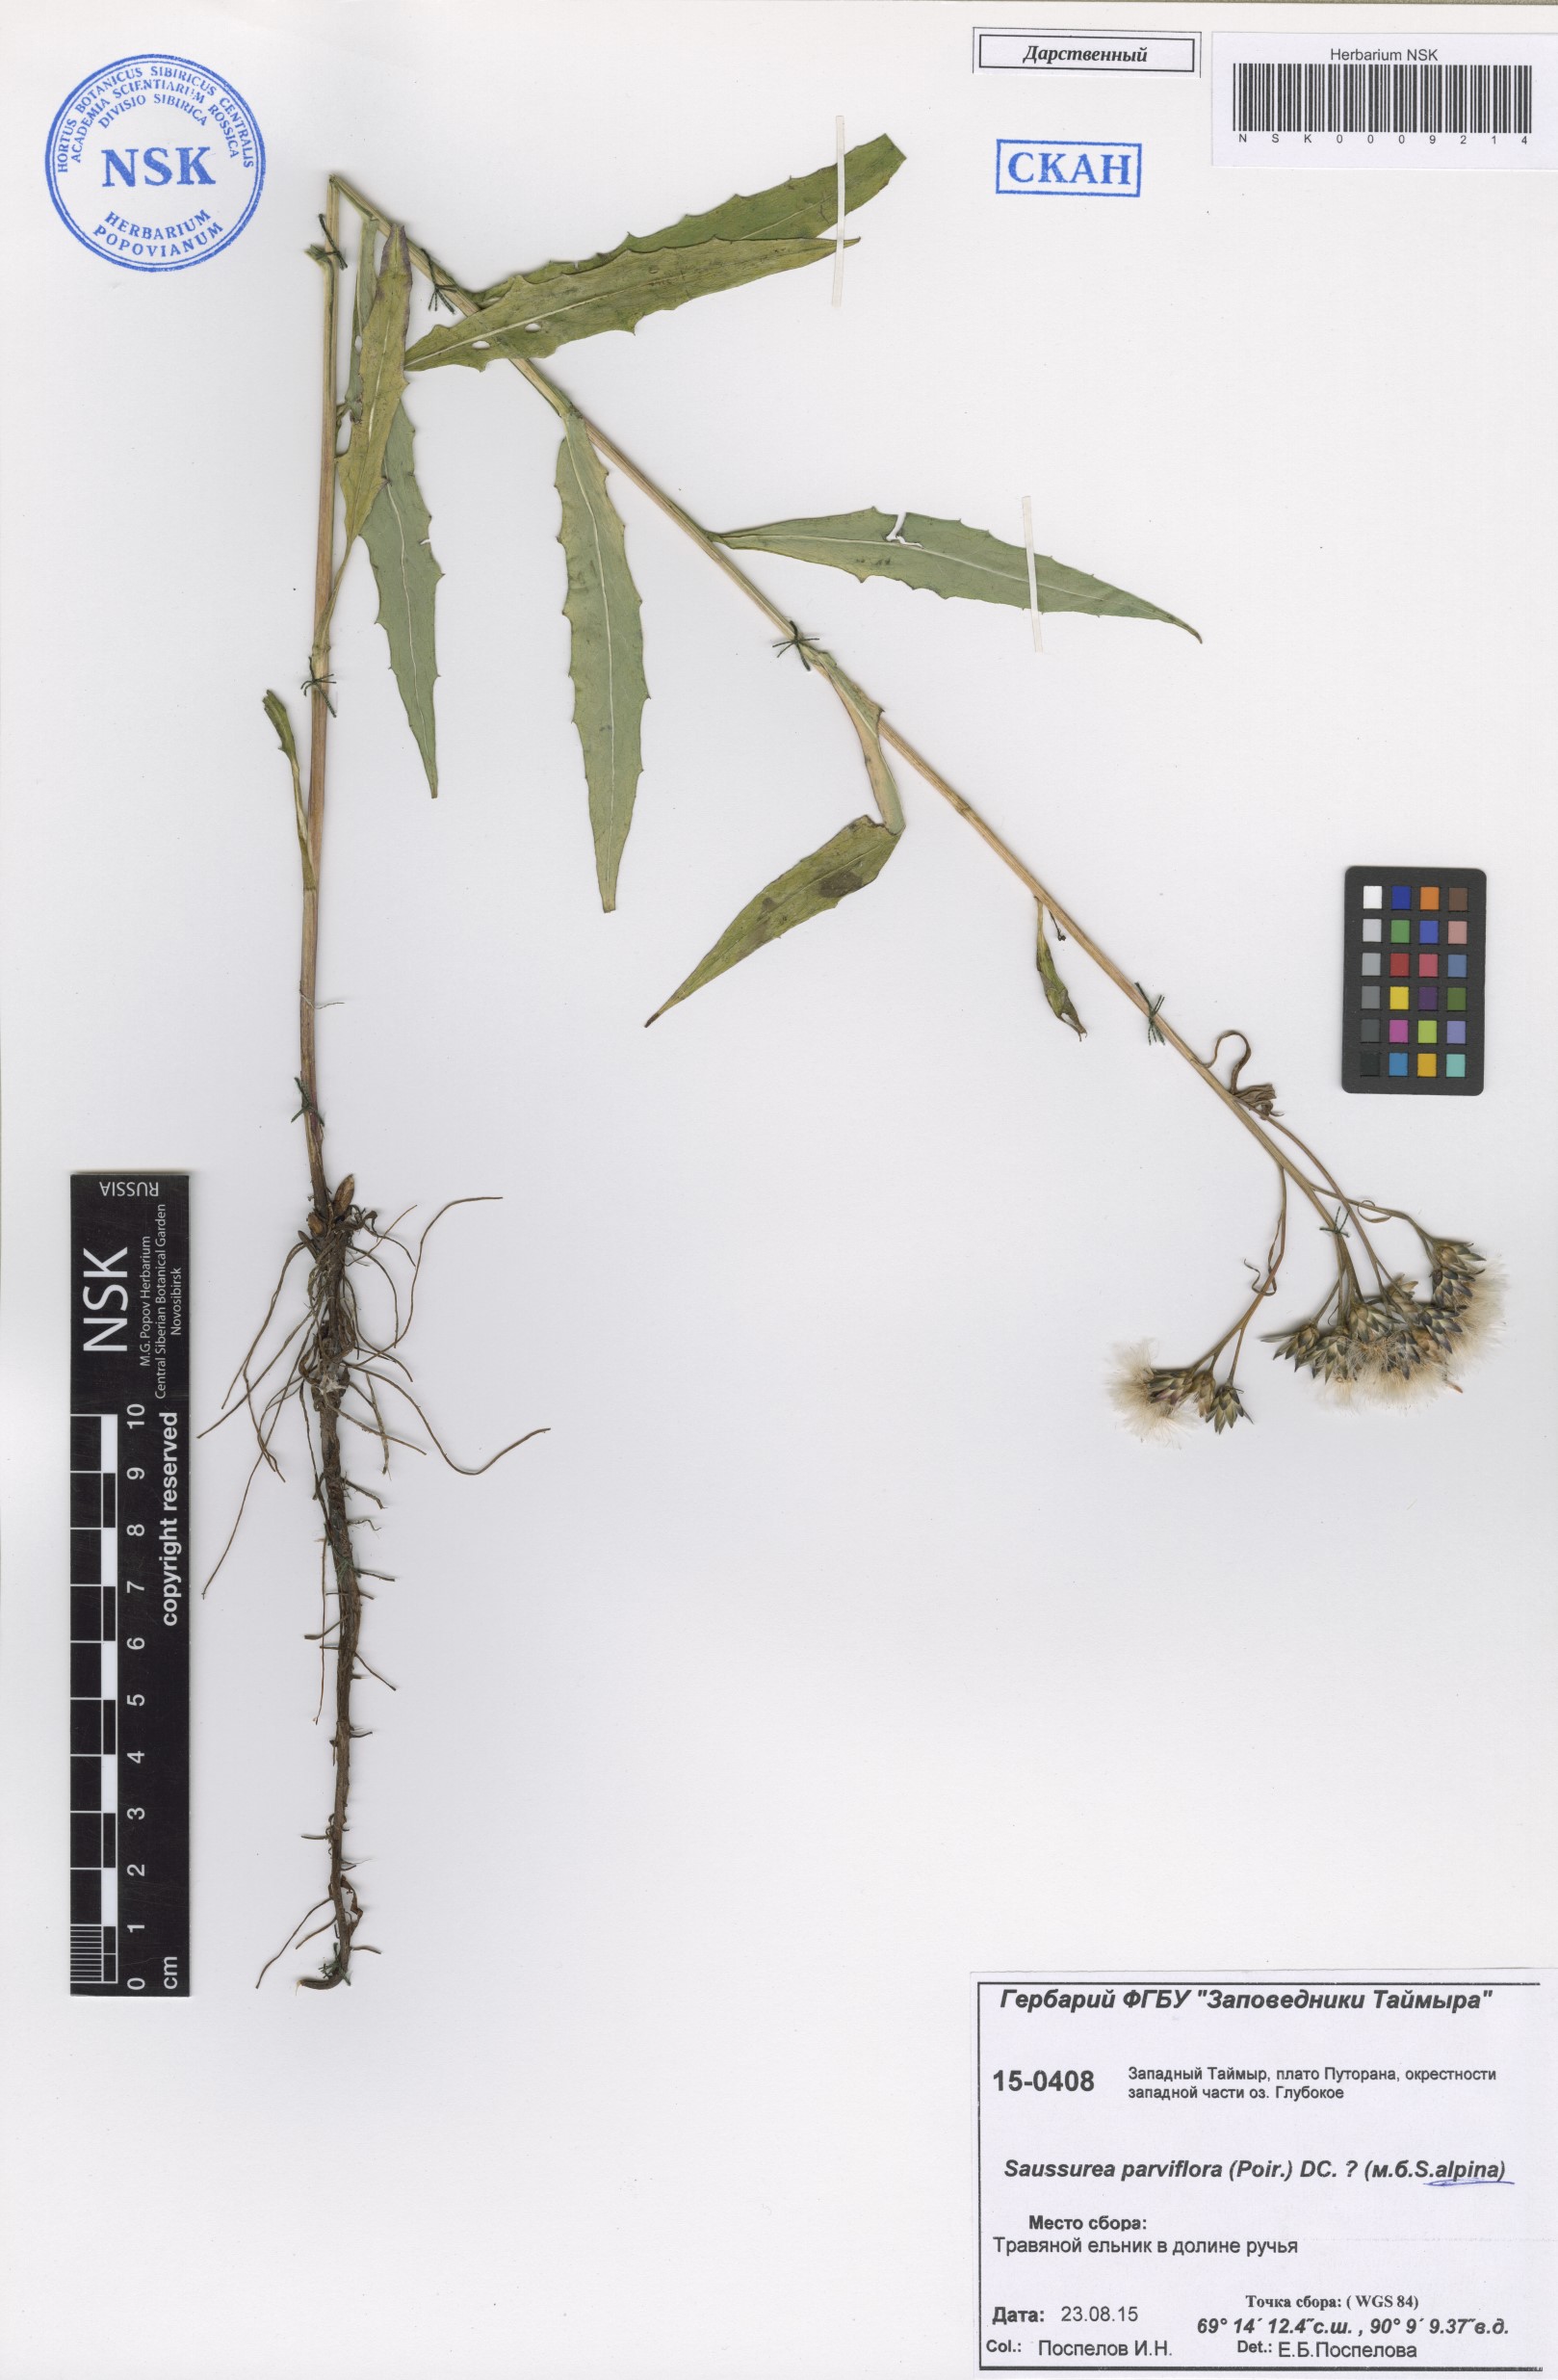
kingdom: Plantae
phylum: Tracheophyta
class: Magnoliopsida
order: Asterales
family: Asteraceae
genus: Saussurea
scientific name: Saussurea alpina
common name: Alpine saw-wort
